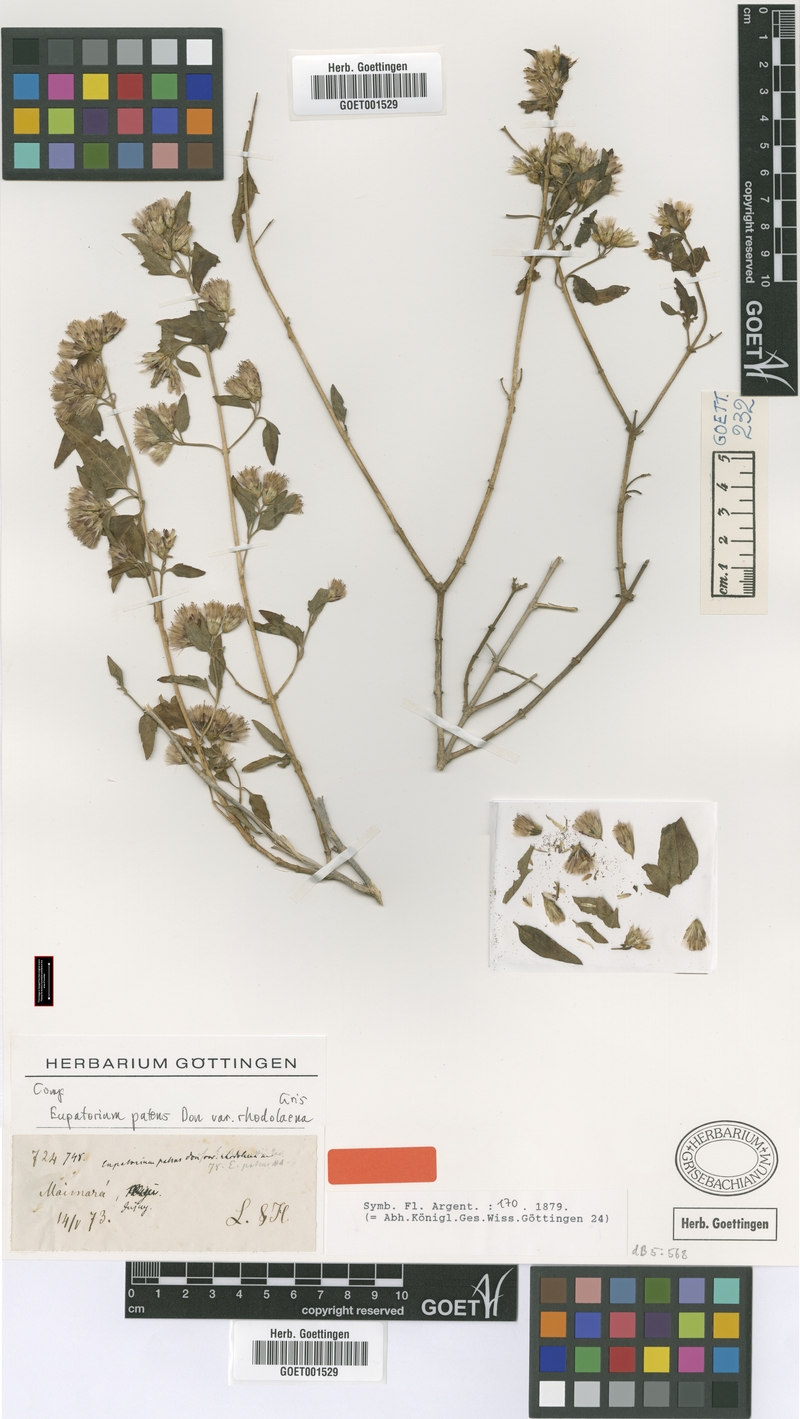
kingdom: Plantae
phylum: Tracheophyta
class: Magnoliopsida
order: Asterales
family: Asteraceae
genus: Austrobrickellia
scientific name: Austrobrickellia patens
